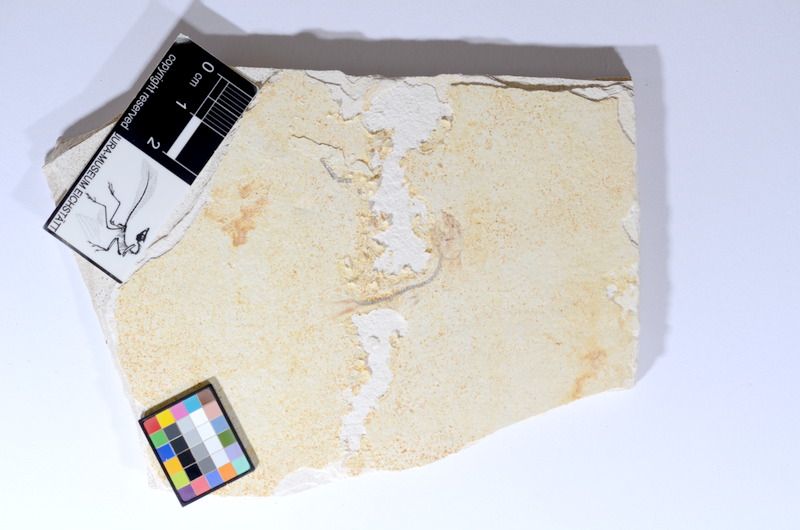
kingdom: Animalia
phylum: Chordata
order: Salmoniformes
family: Orthogonikleithridae
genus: Orthogonikleithrus
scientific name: Orthogonikleithrus hoelli
